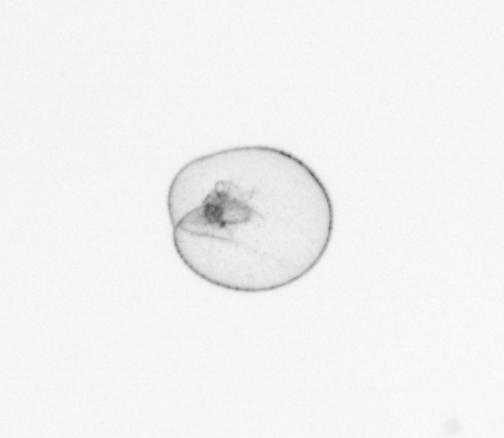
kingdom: Chromista
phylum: Myzozoa
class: Dinophyceae
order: Noctilucales
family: Noctilucaceae
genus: Noctiluca
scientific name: Noctiluca scintillans
